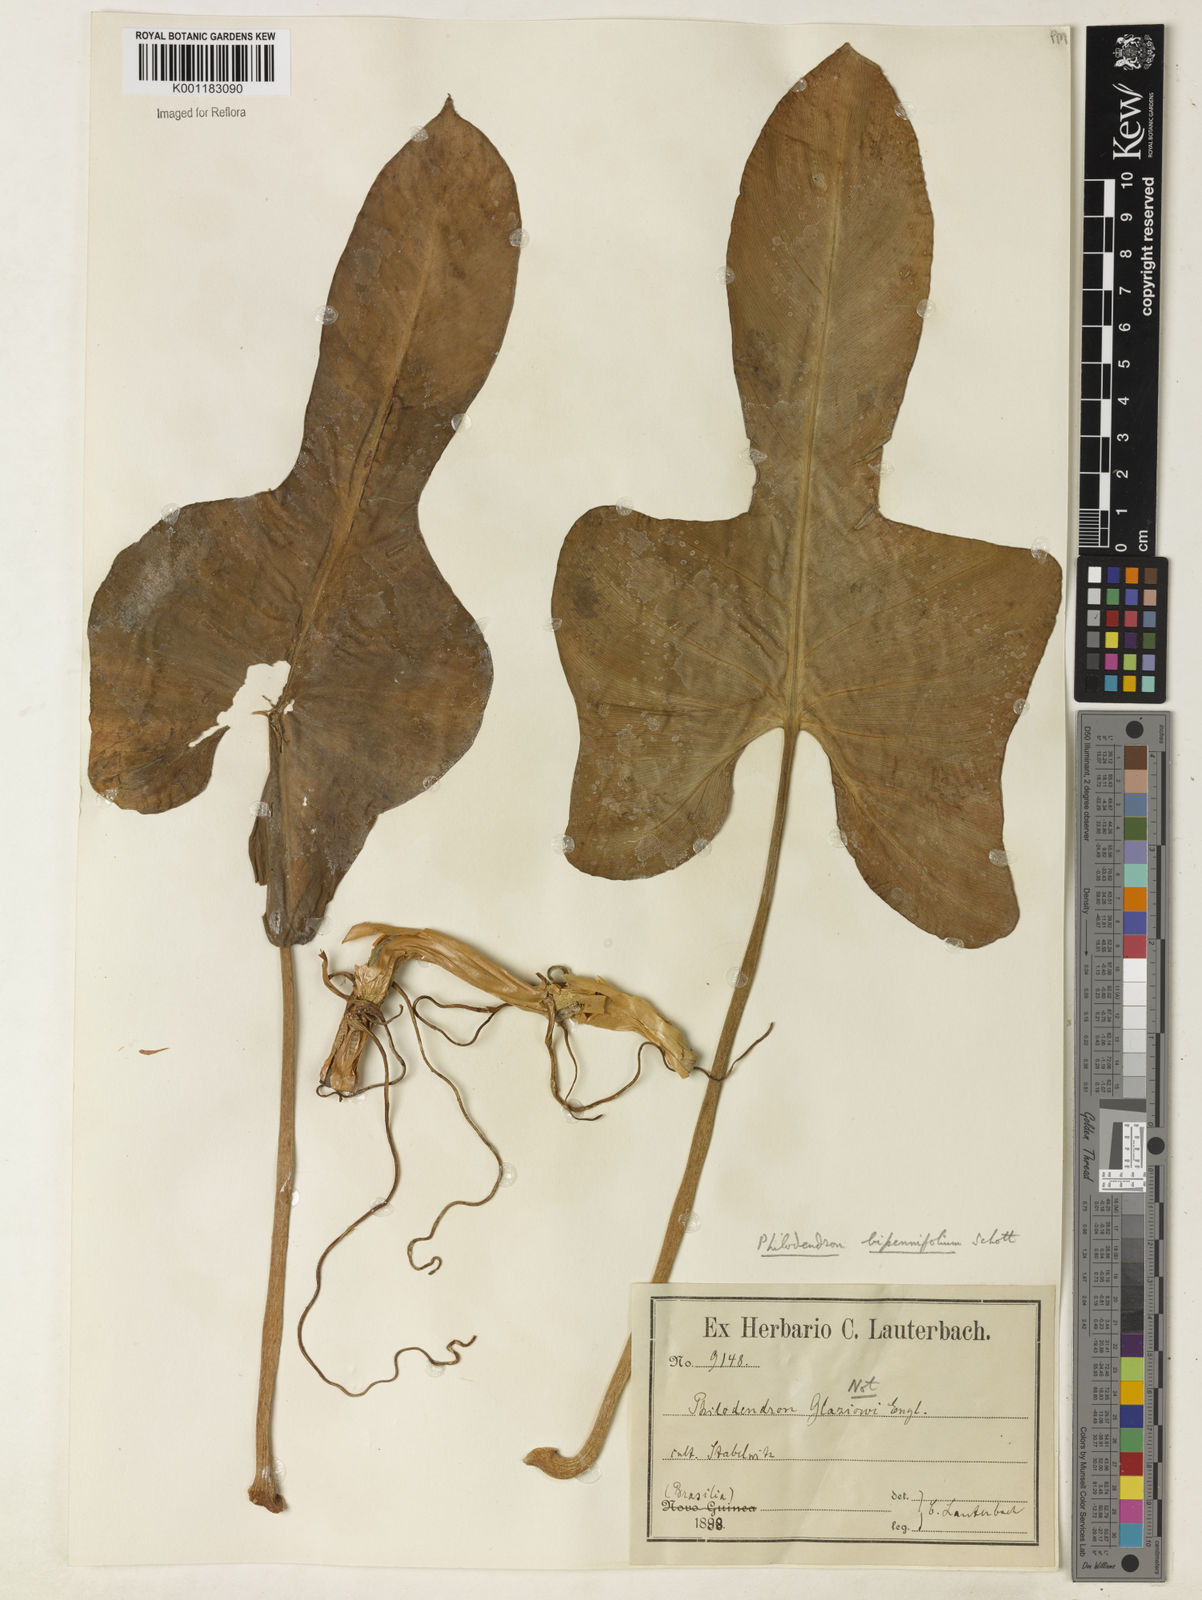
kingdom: Plantae
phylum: Tracheophyta
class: Liliopsida
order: Alismatales
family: Araceae
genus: Philodendron
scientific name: Philodendron bipennifolium
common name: Fiddle-leaf philodendron
